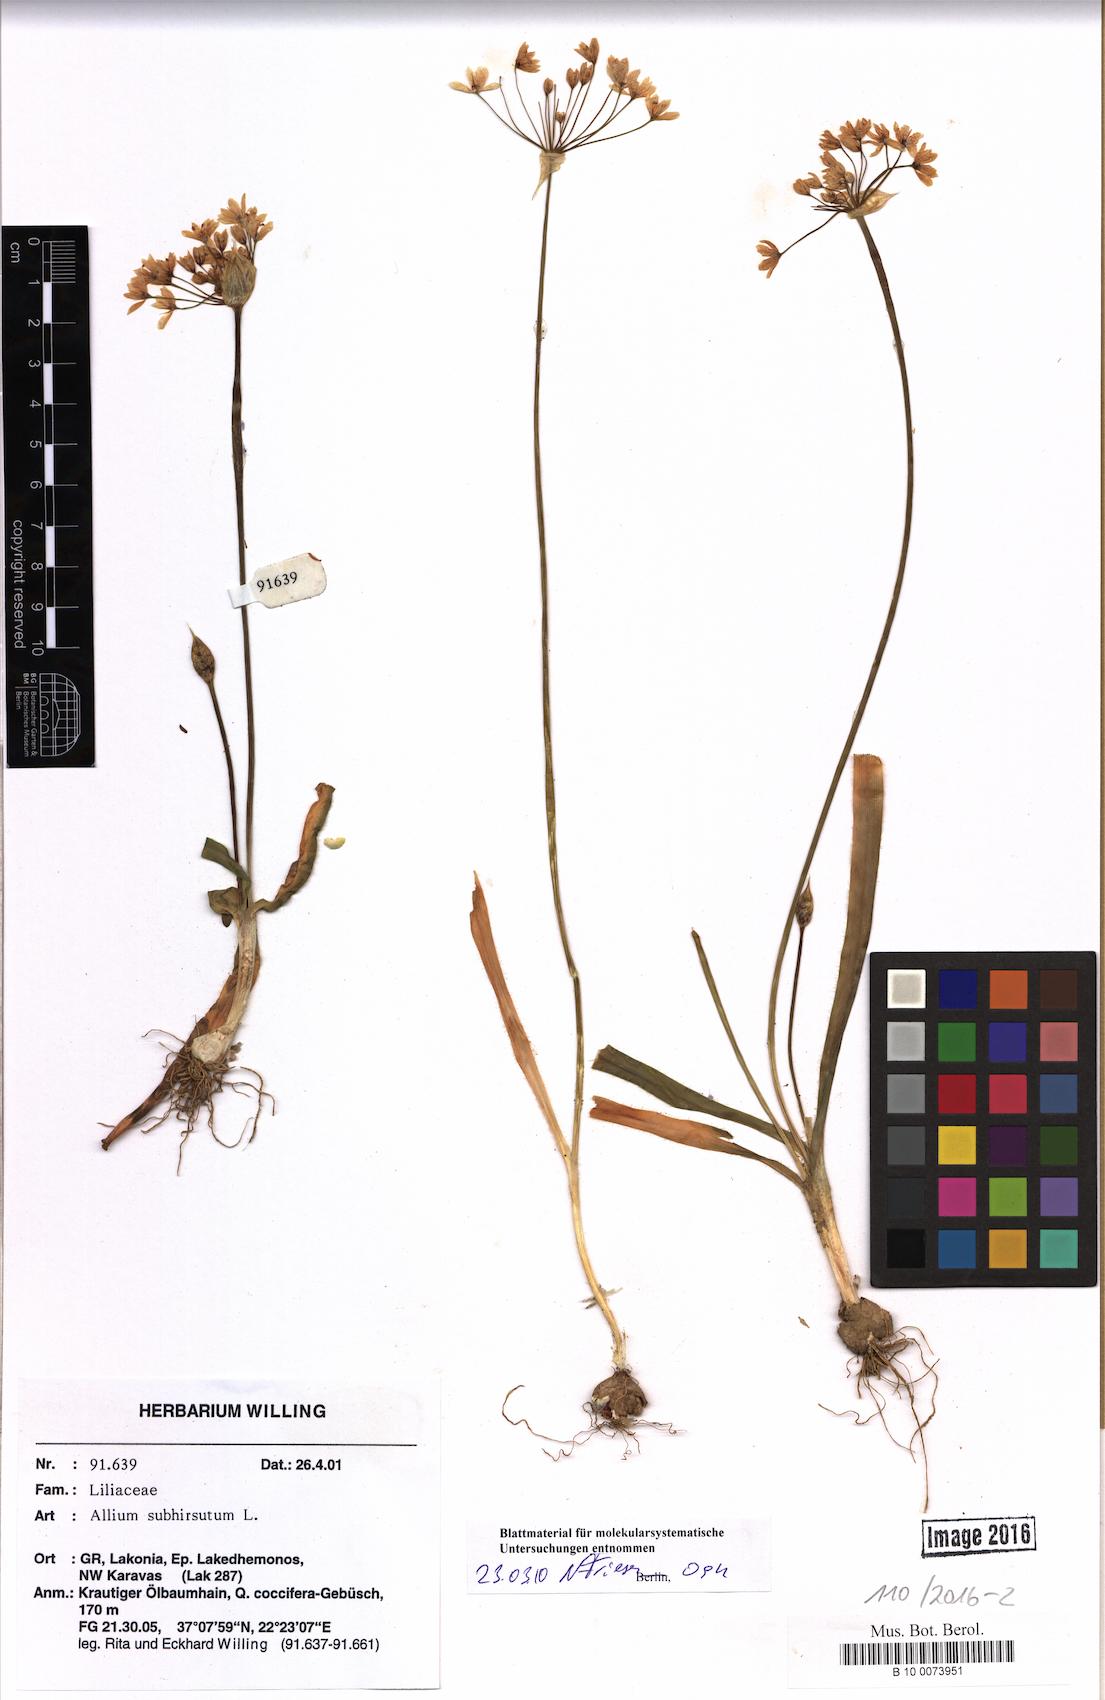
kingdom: Plantae
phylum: Tracheophyta
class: Liliopsida
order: Asparagales
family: Amaryllidaceae
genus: Allium
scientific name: Allium subhirsutum
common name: Hairy garlic
